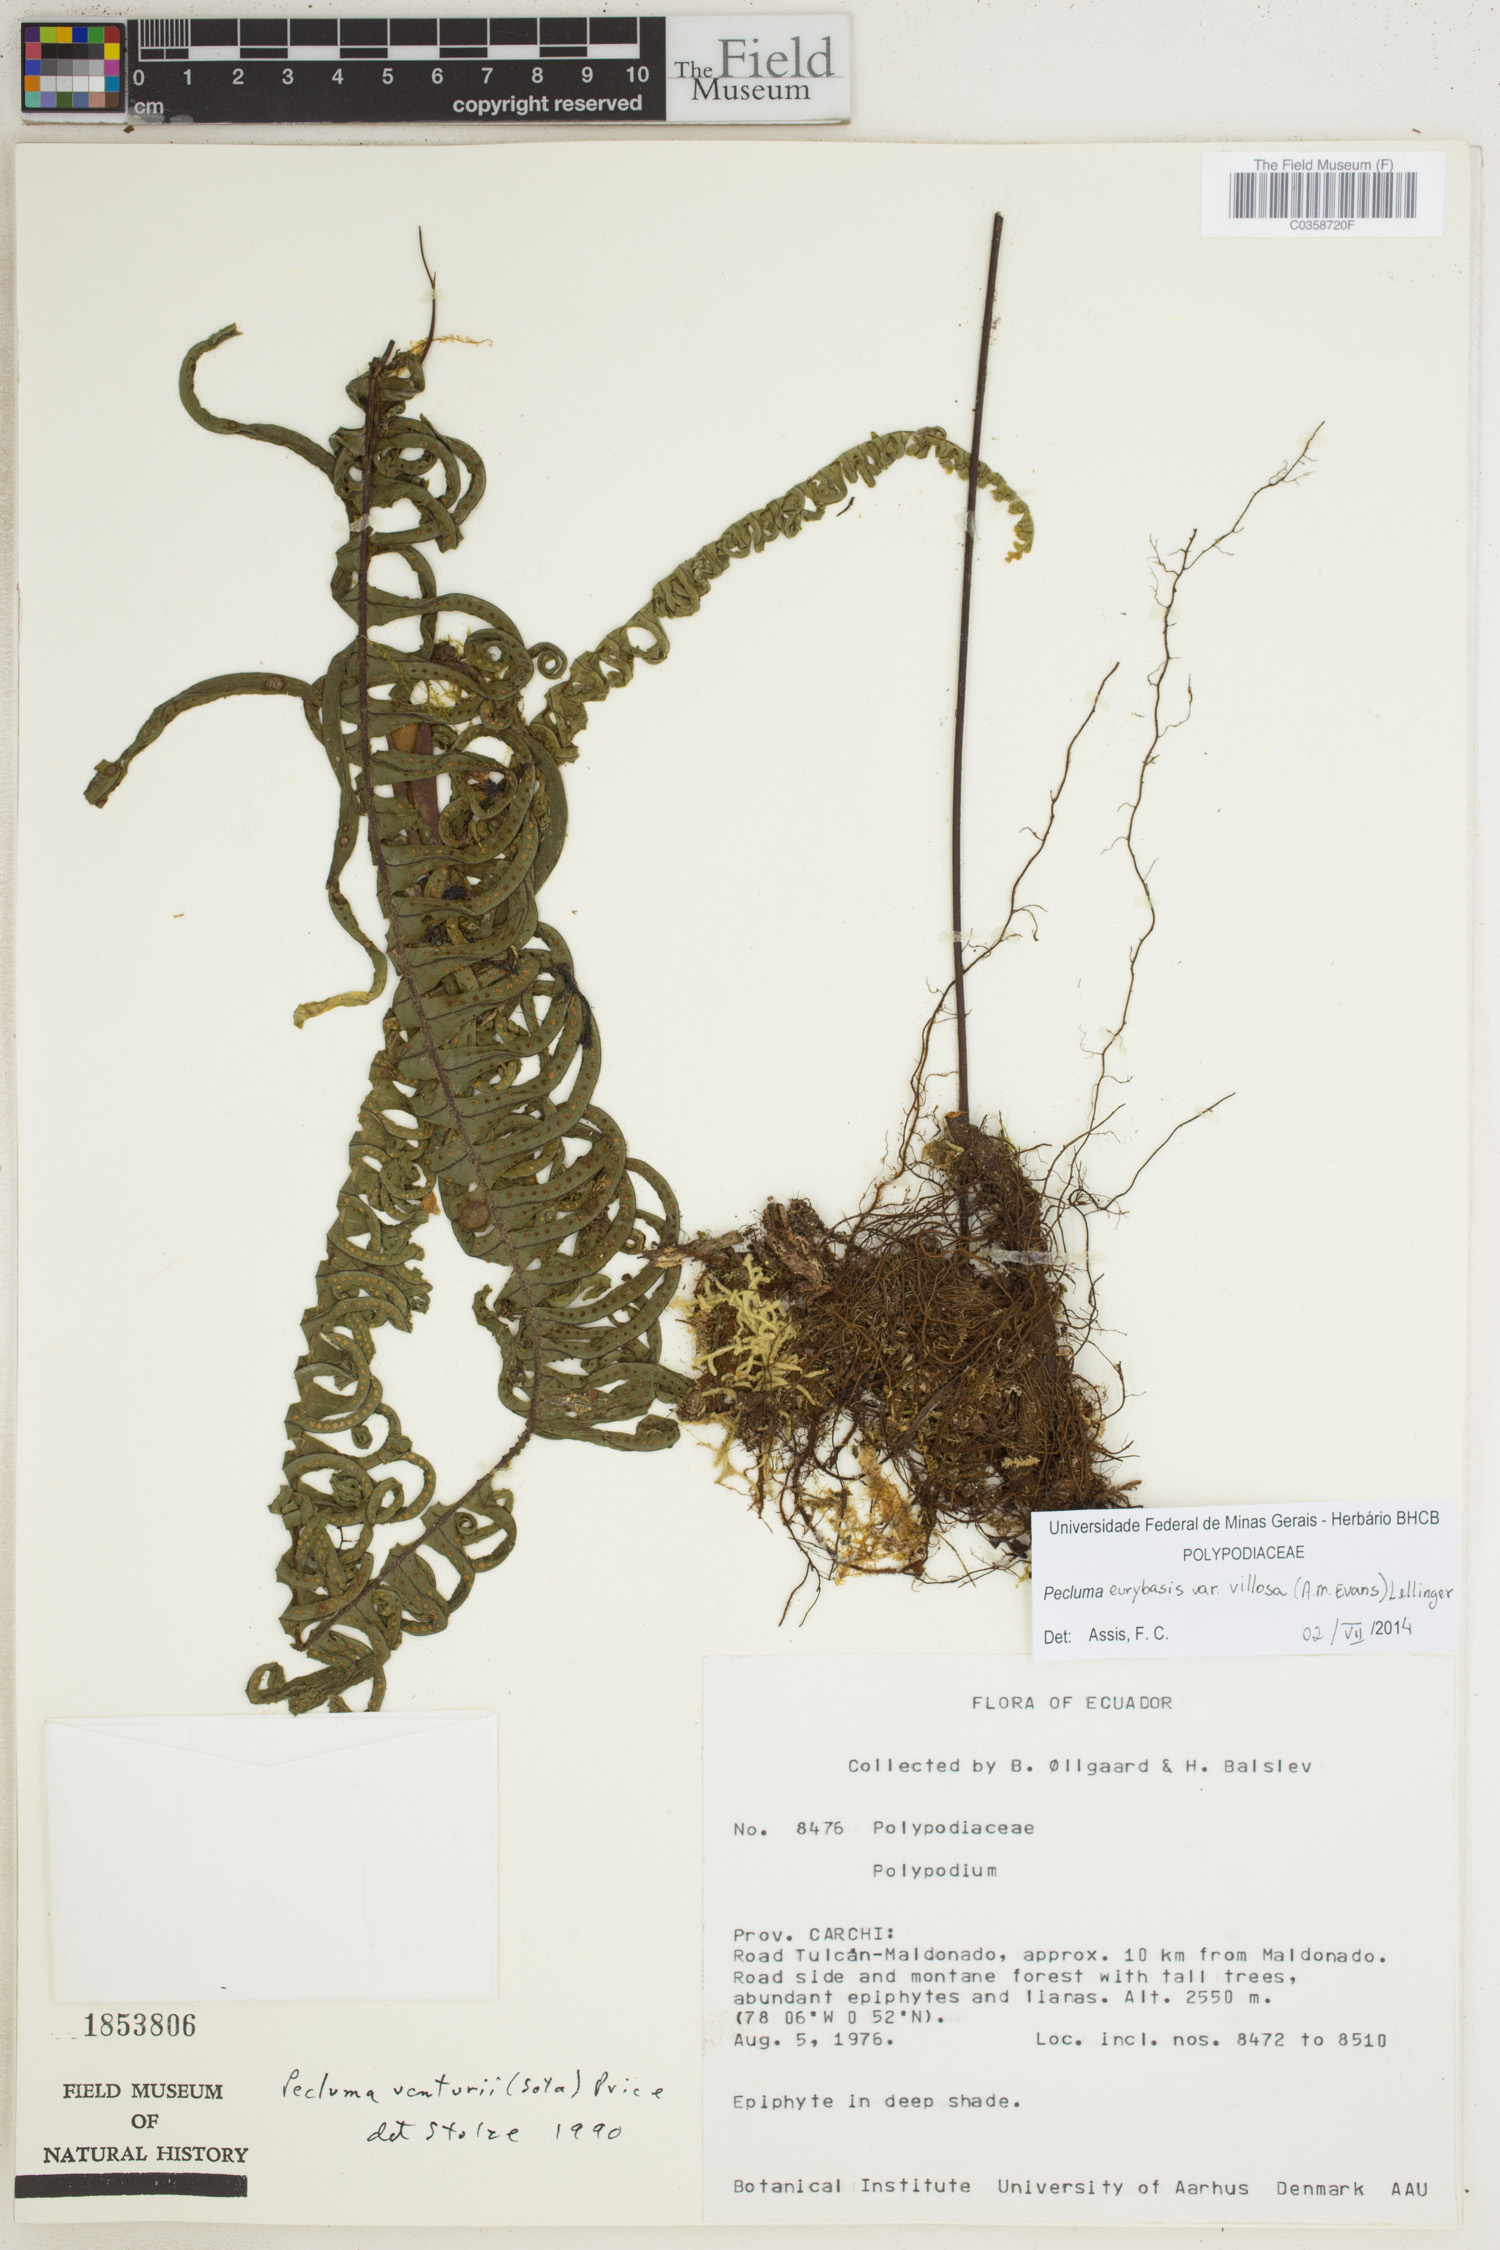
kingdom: Plantae
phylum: Tracheophyta
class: Polypodiopsida
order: Polypodiales
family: Polypodiaceae
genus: Pecluma
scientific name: Pecluma eurybasis
